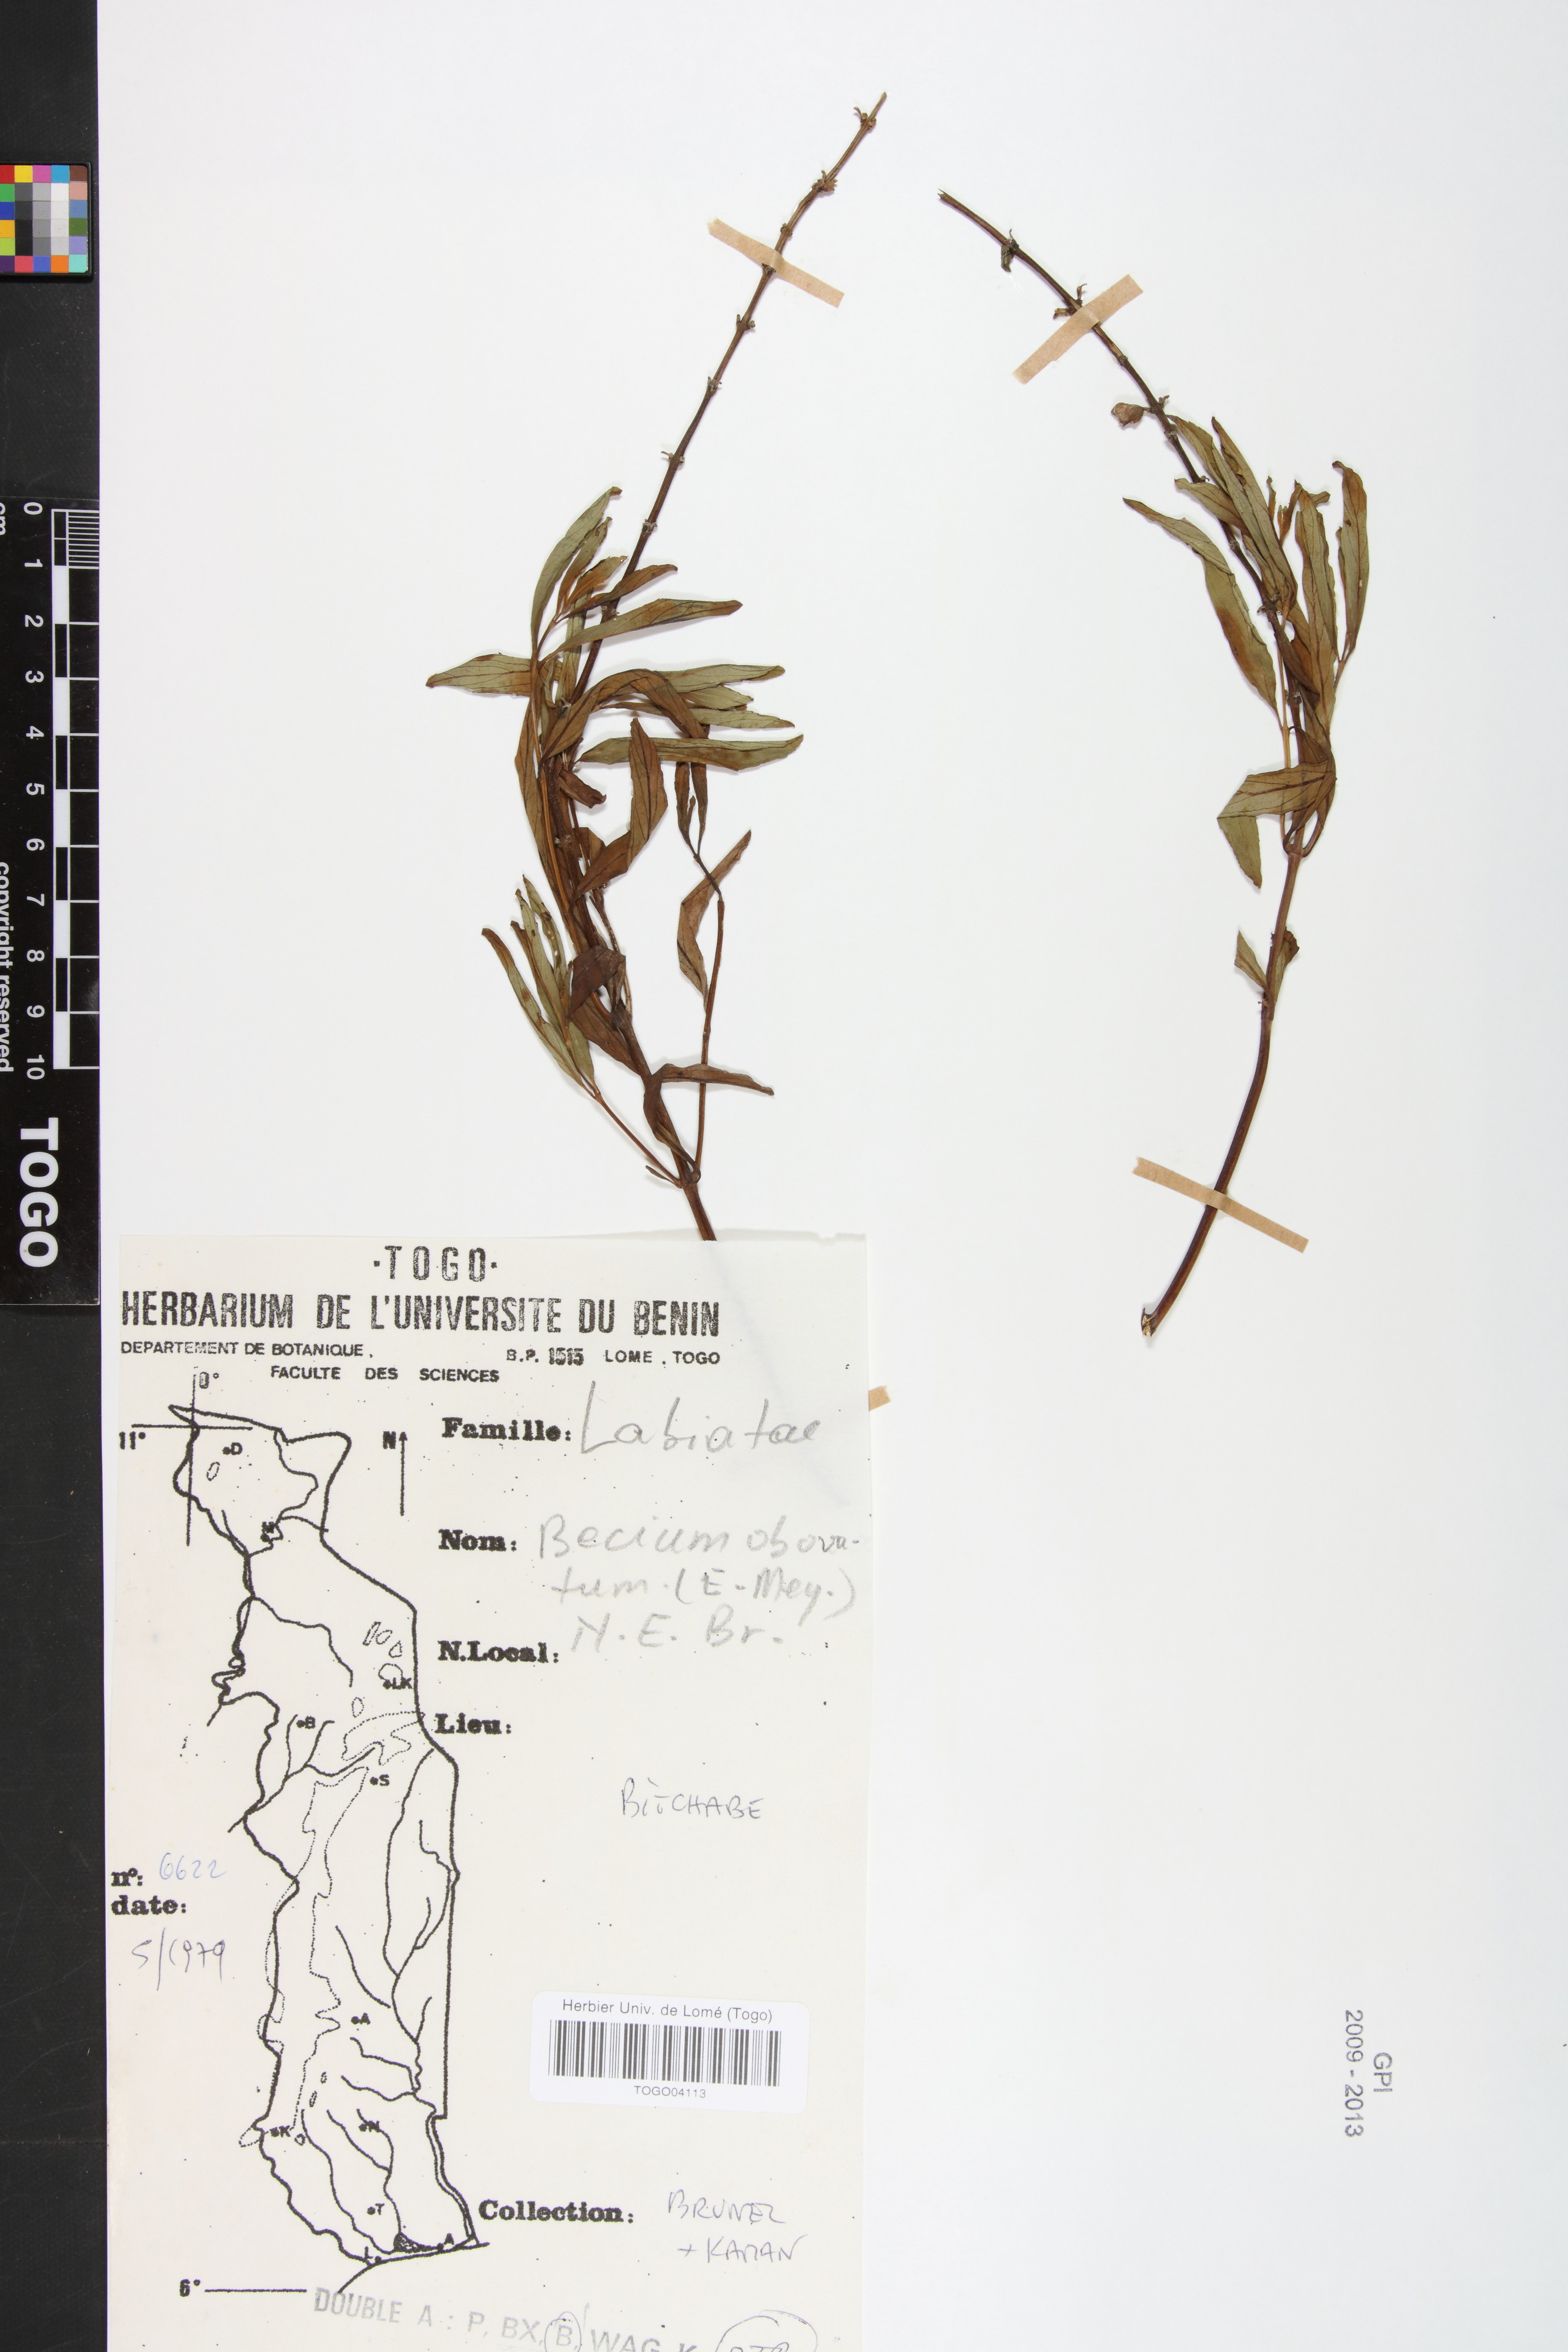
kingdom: Plantae
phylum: Tracheophyta
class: Magnoliopsida
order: Lamiales
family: Lamiaceae
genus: Ocimum
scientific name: Ocimum obovatum
